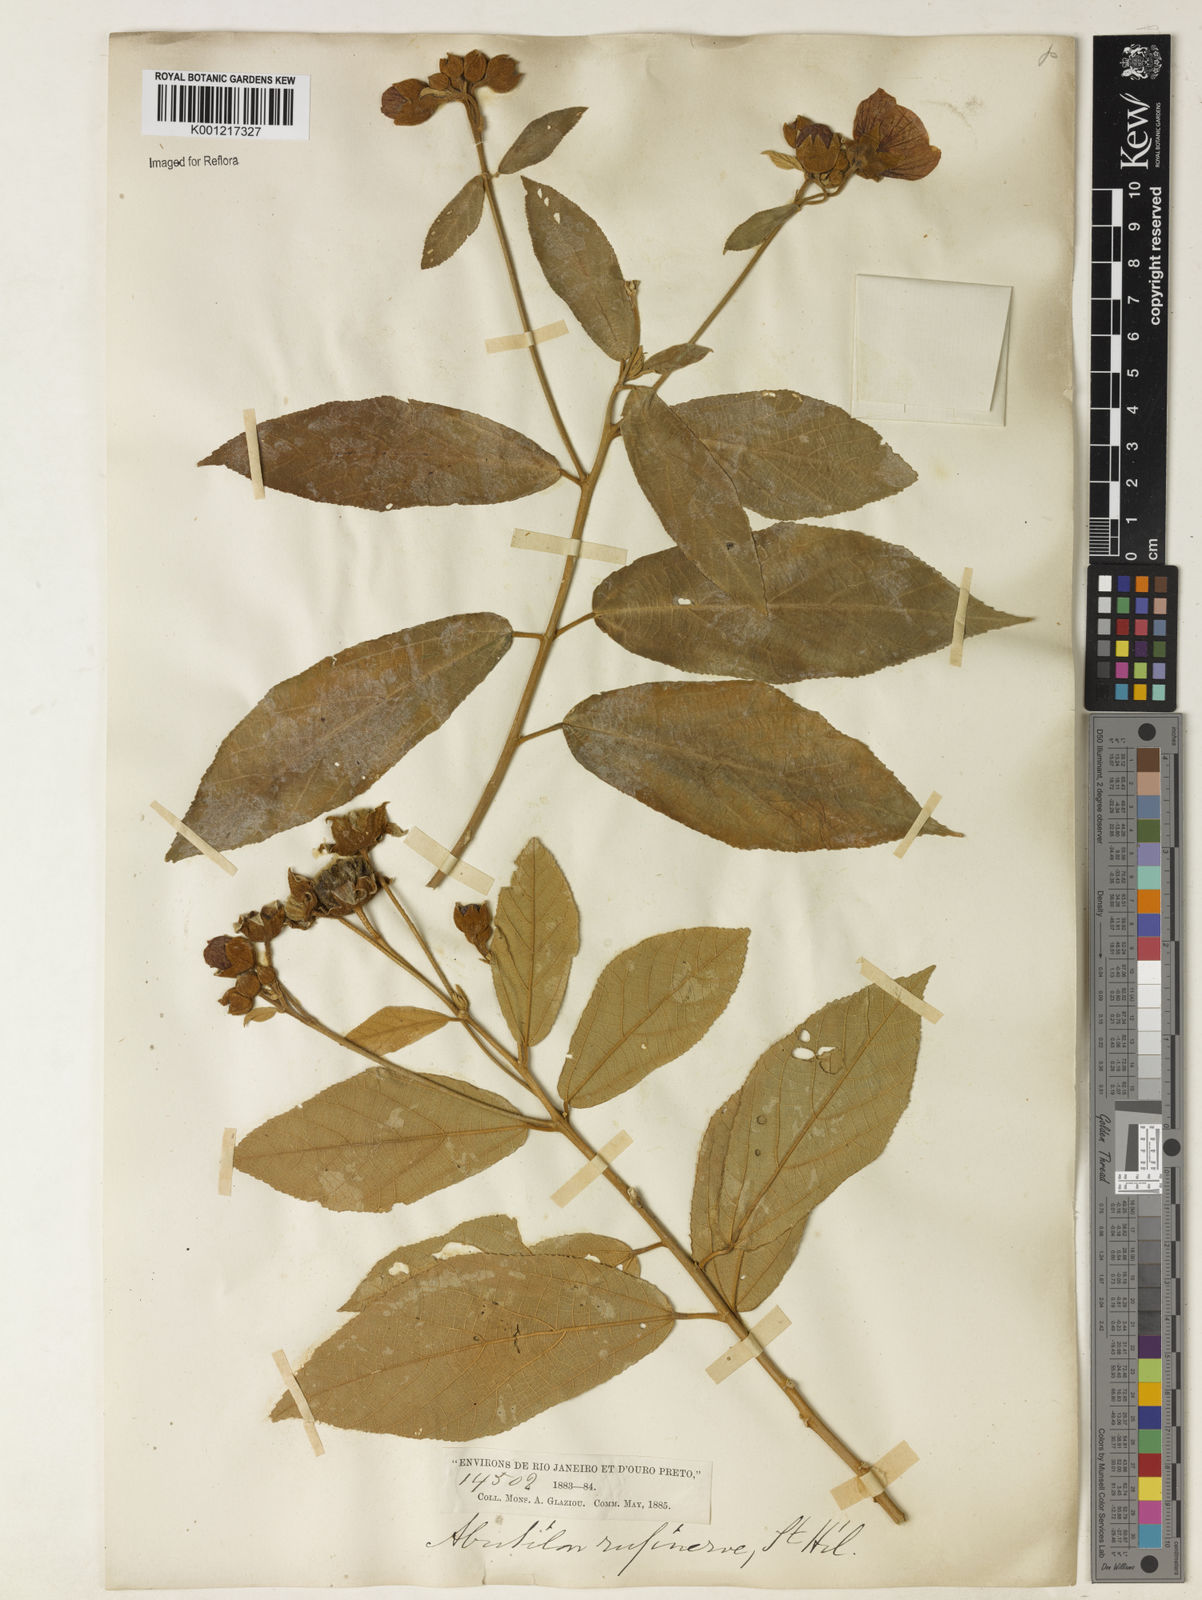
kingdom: Plantae
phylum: Tracheophyta
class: Magnoliopsida
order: Malvales
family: Malvaceae
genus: Callianthe
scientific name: Callianthe rufinerva
